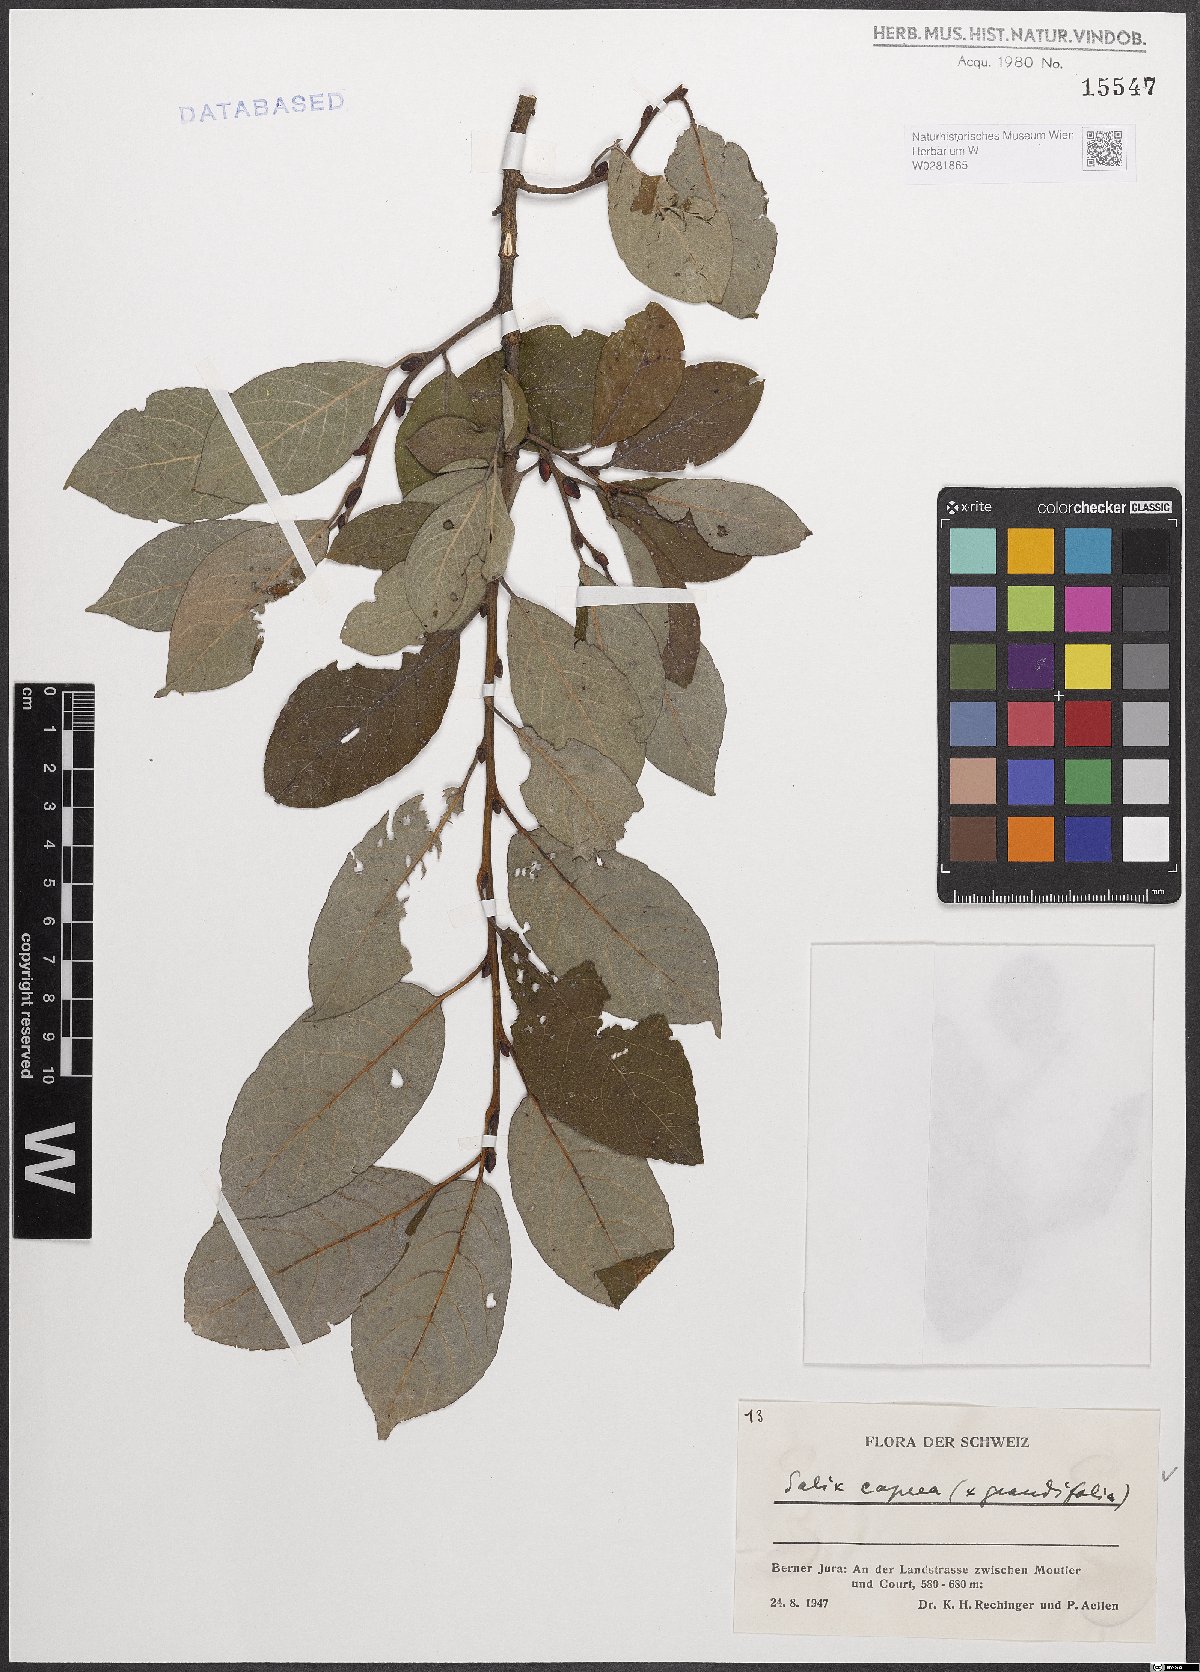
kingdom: Plantae
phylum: Tracheophyta
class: Magnoliopsida
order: Malpighiales
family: Salicaceae
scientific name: Salicaceae
